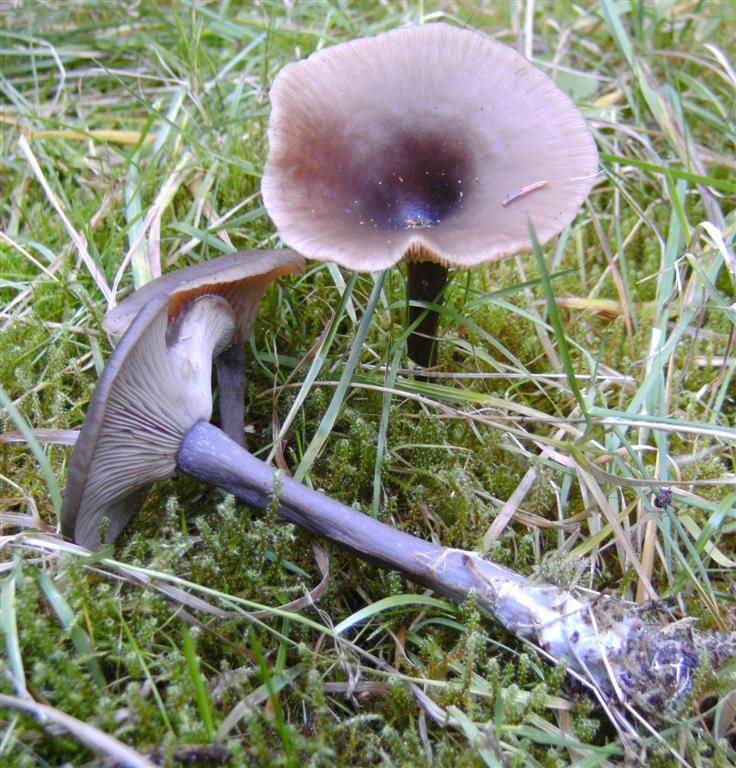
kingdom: Fungi
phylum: Basidiomycota
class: Agaricomycetes
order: Agaricales
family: Pseudoclitocybaceae
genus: Pseudoclitocybe
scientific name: Pseudoclitocybe cyathiformis
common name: almindelig bægertragthat
